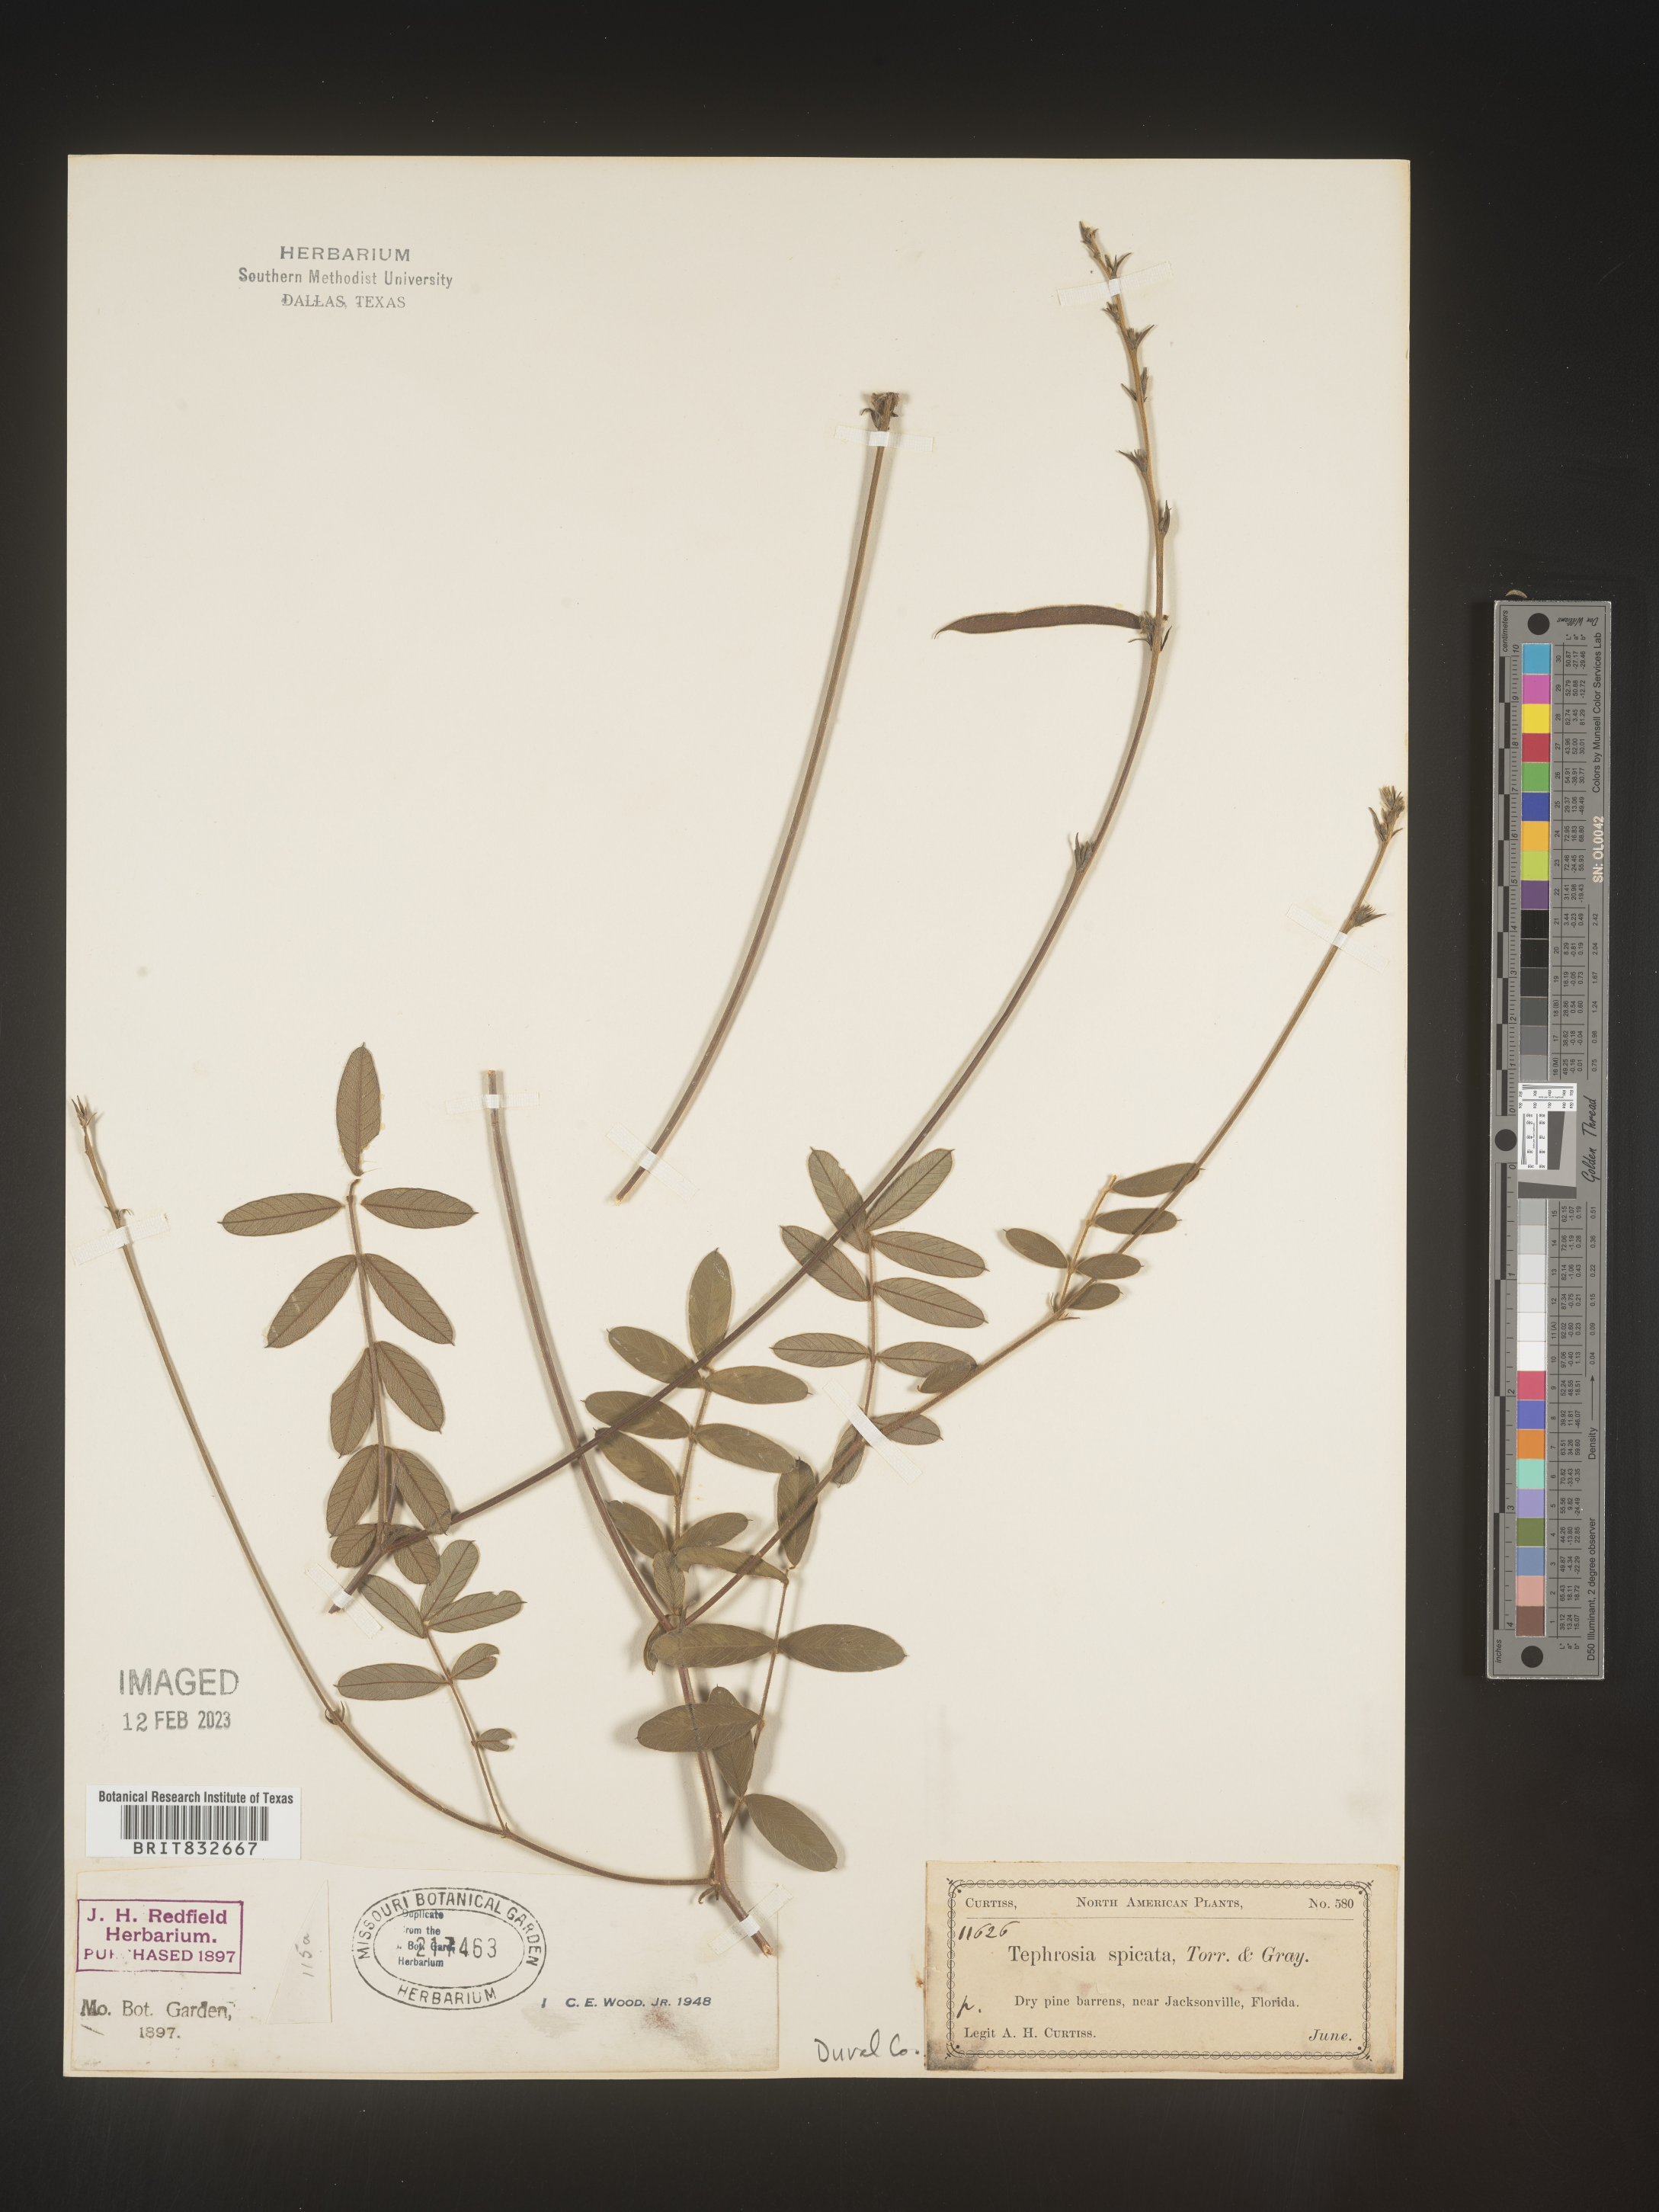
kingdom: Plantae
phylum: Tracheophyta
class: Magnoliopsida
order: Fabales
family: Fabaceae
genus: Tephrosia
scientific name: Tephrosia spicata
